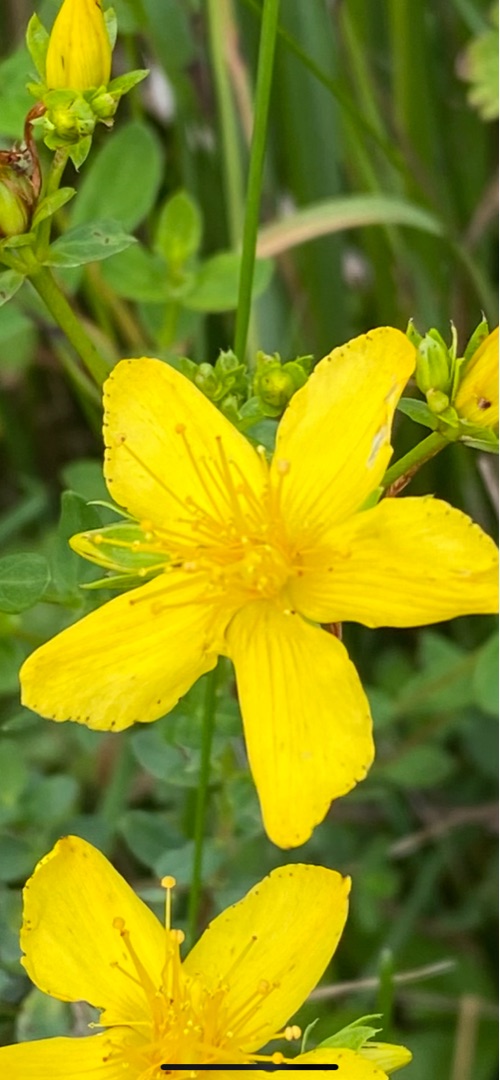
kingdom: Plantae
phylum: Tracheophyta
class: Magnoliopsida
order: Malpighiales
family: Hypericaceae
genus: Hypericum
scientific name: Hypericum perforatum
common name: Prikbladet perikon
